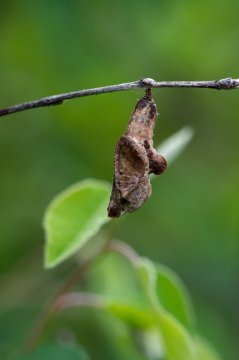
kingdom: Animalia
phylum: Arthropoda
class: Insecta
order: Lepidoptera
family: Nymphalidae
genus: Limenitis
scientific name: Limenitis
